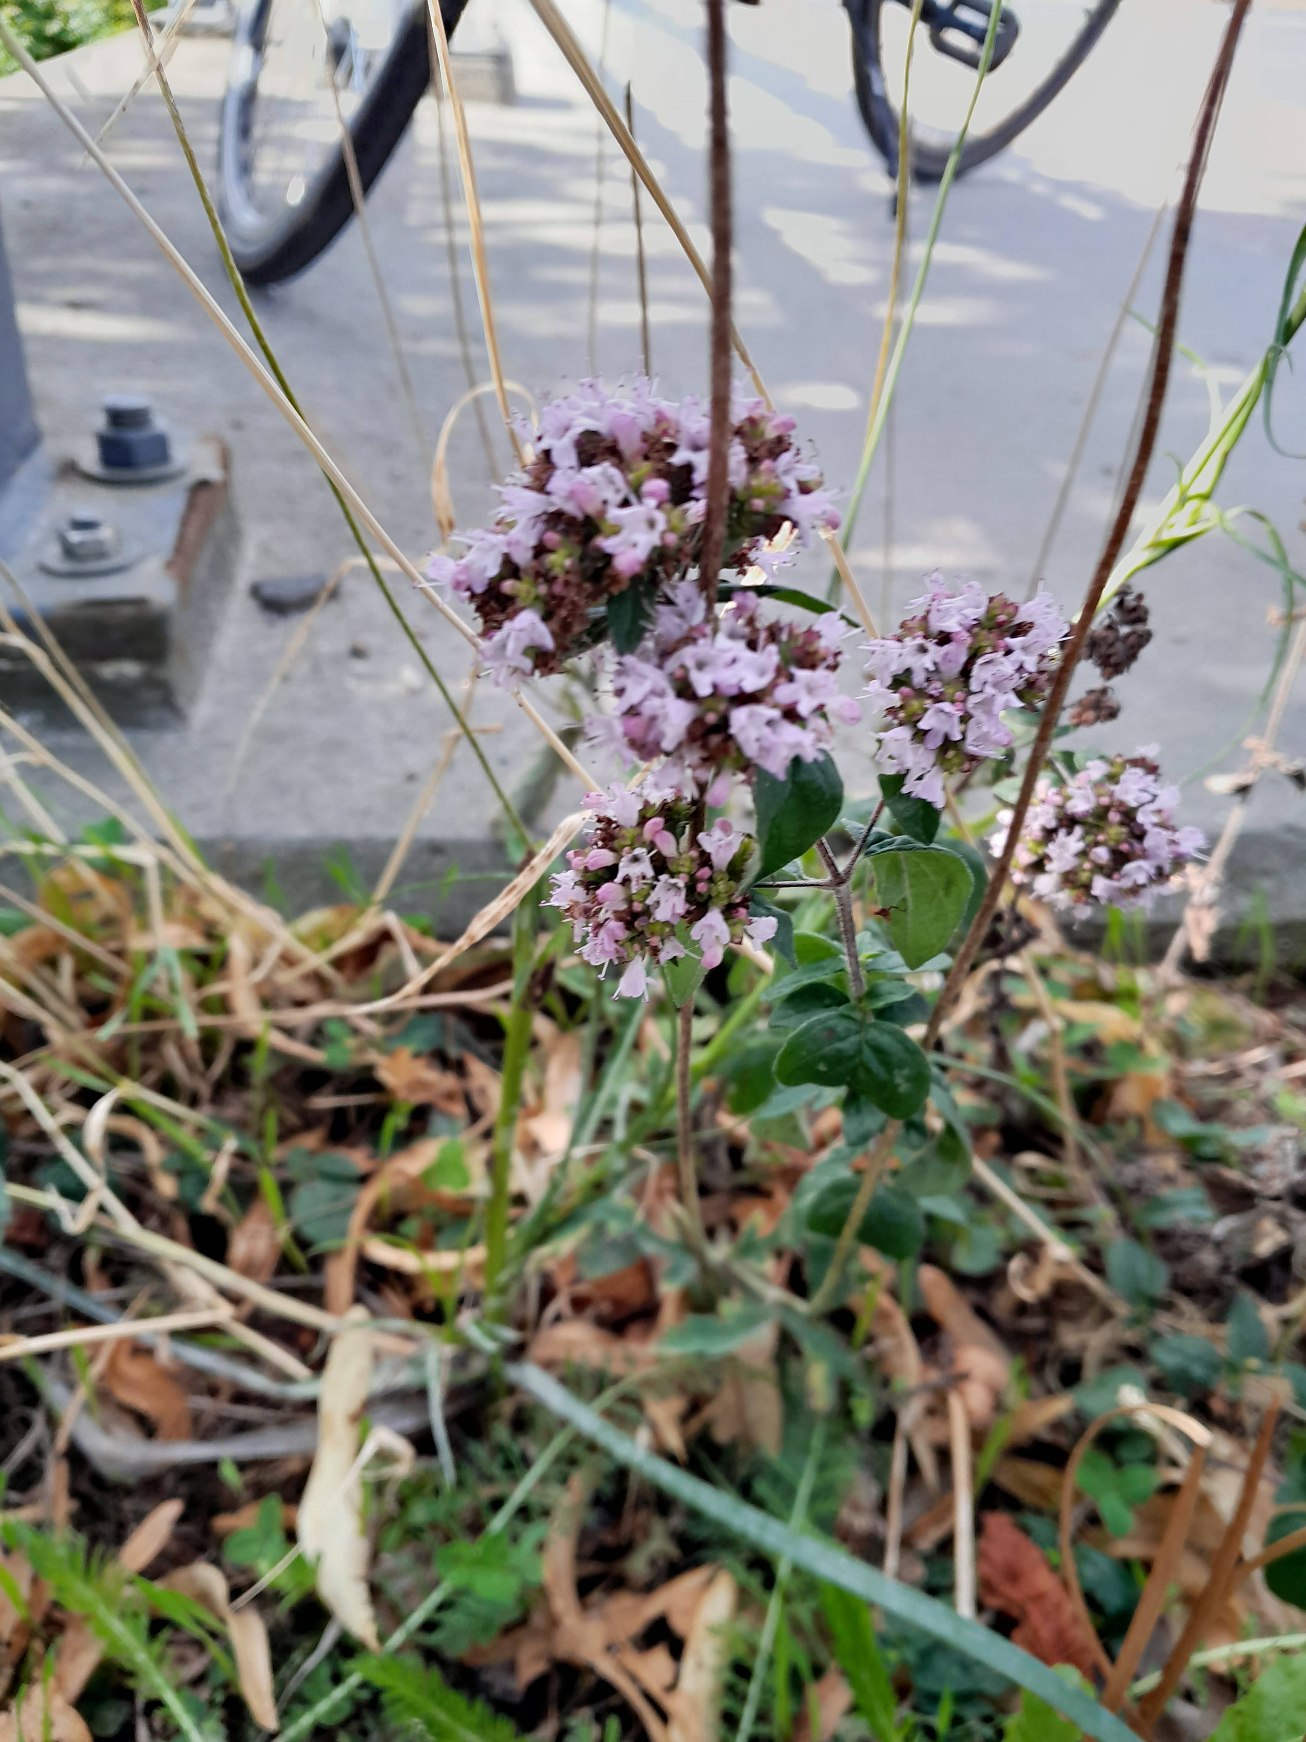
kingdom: Plantae
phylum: Tracheophyta
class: Magnoliopsida
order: Lamiales
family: Lamiaceae
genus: Origanum
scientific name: Origanum vulgare
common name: Merian
